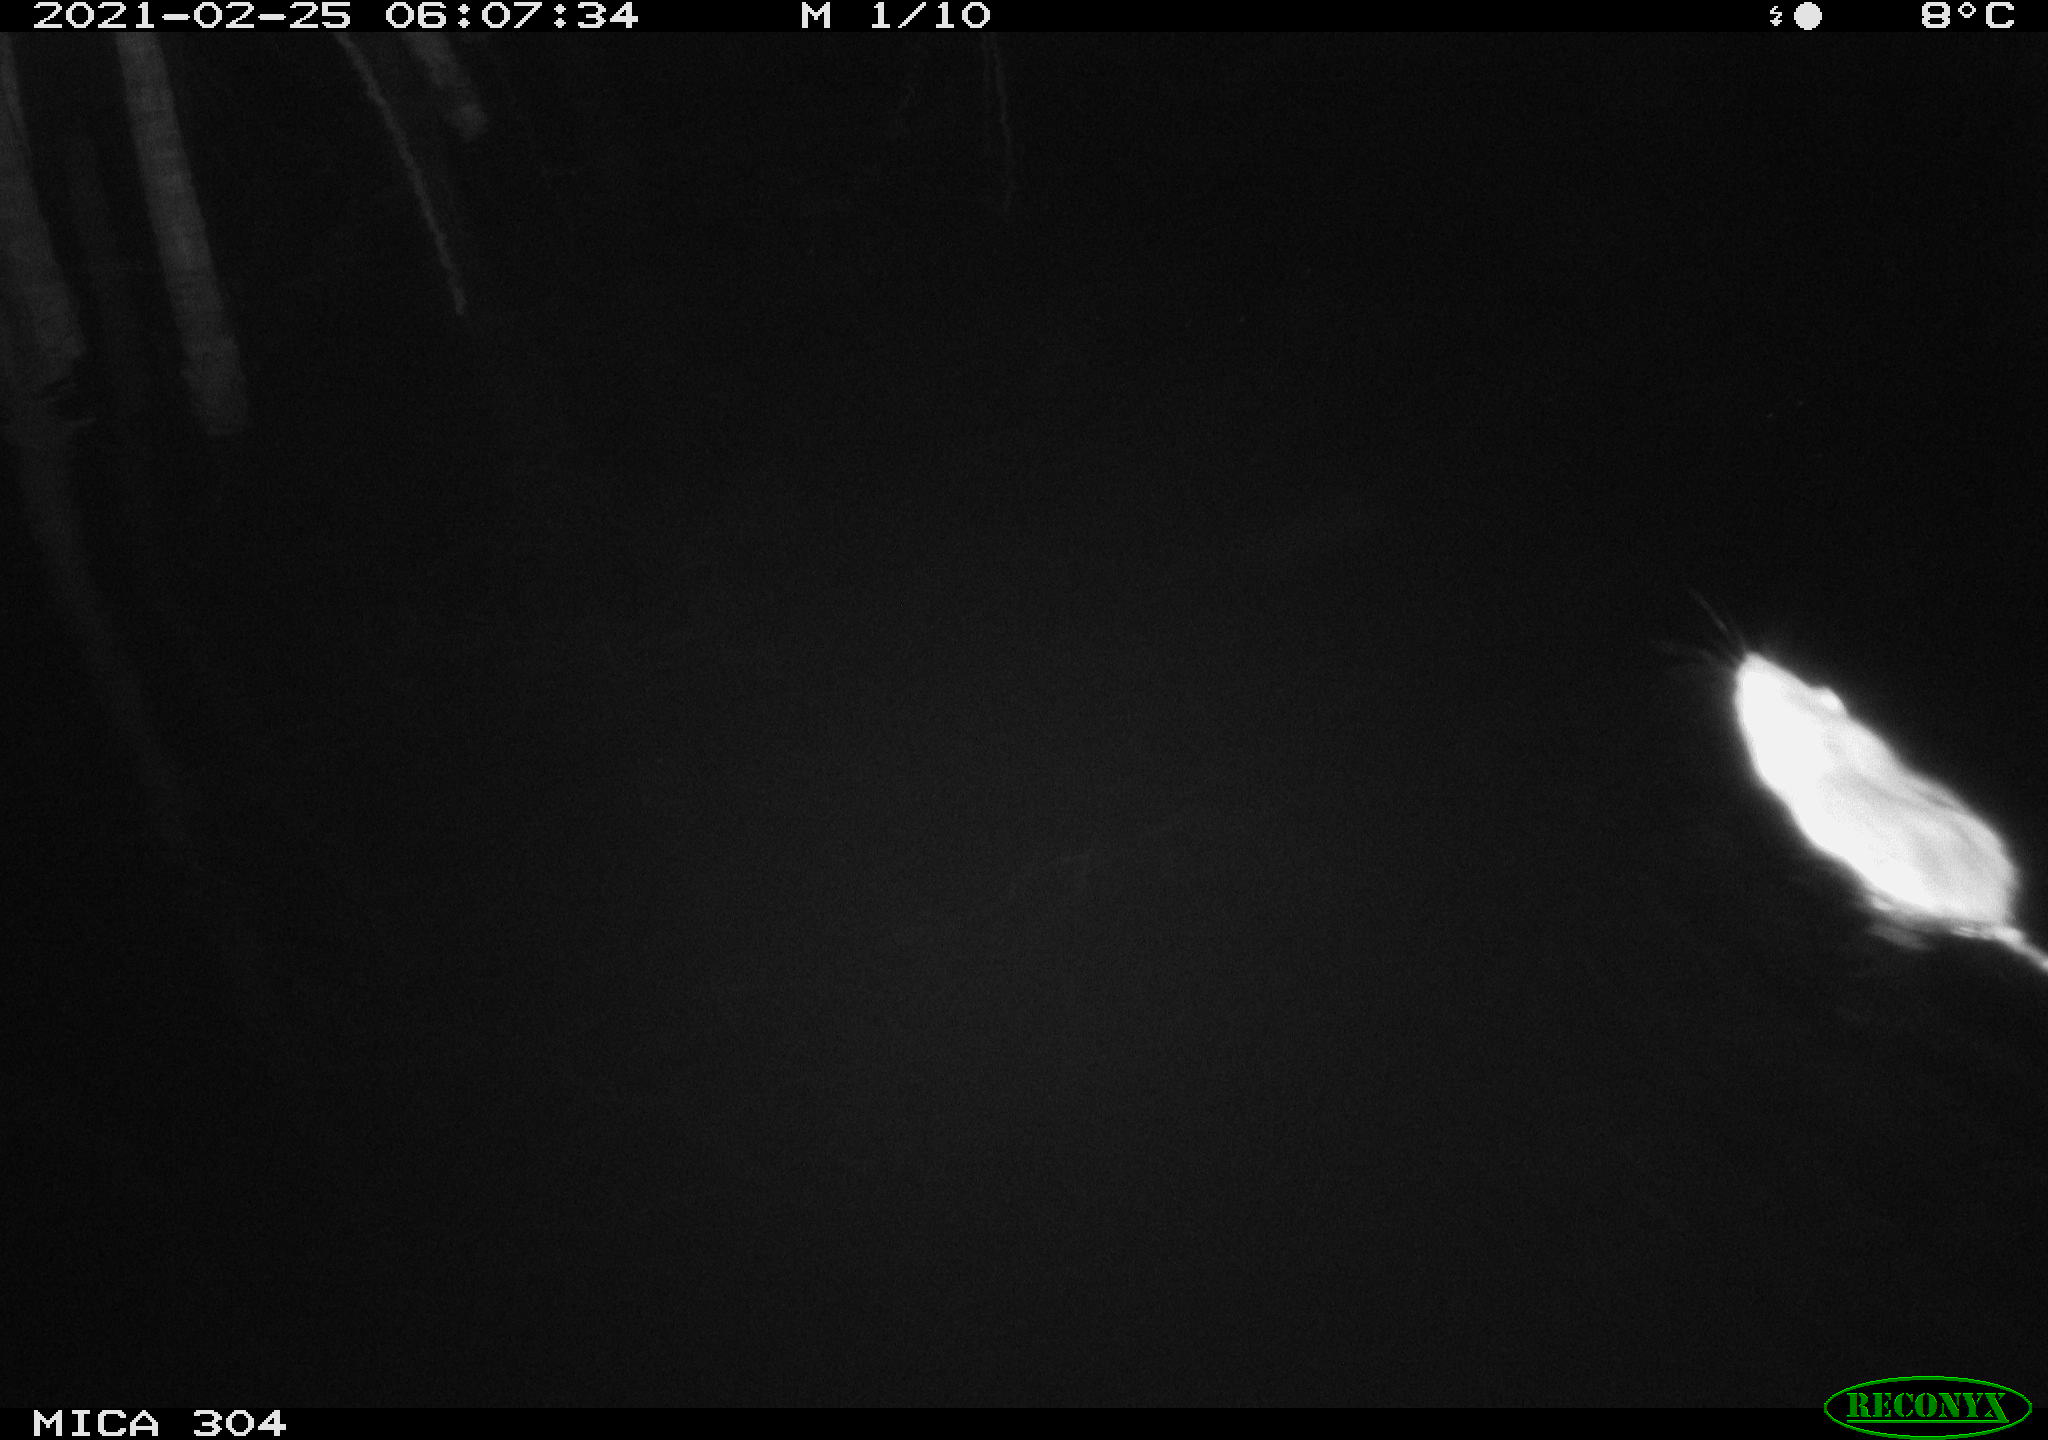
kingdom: Animalia
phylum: Chordata
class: Mammalia
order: Rodentia
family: Muridae
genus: Rattus
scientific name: Rattus norvegicus
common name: Brown rat
